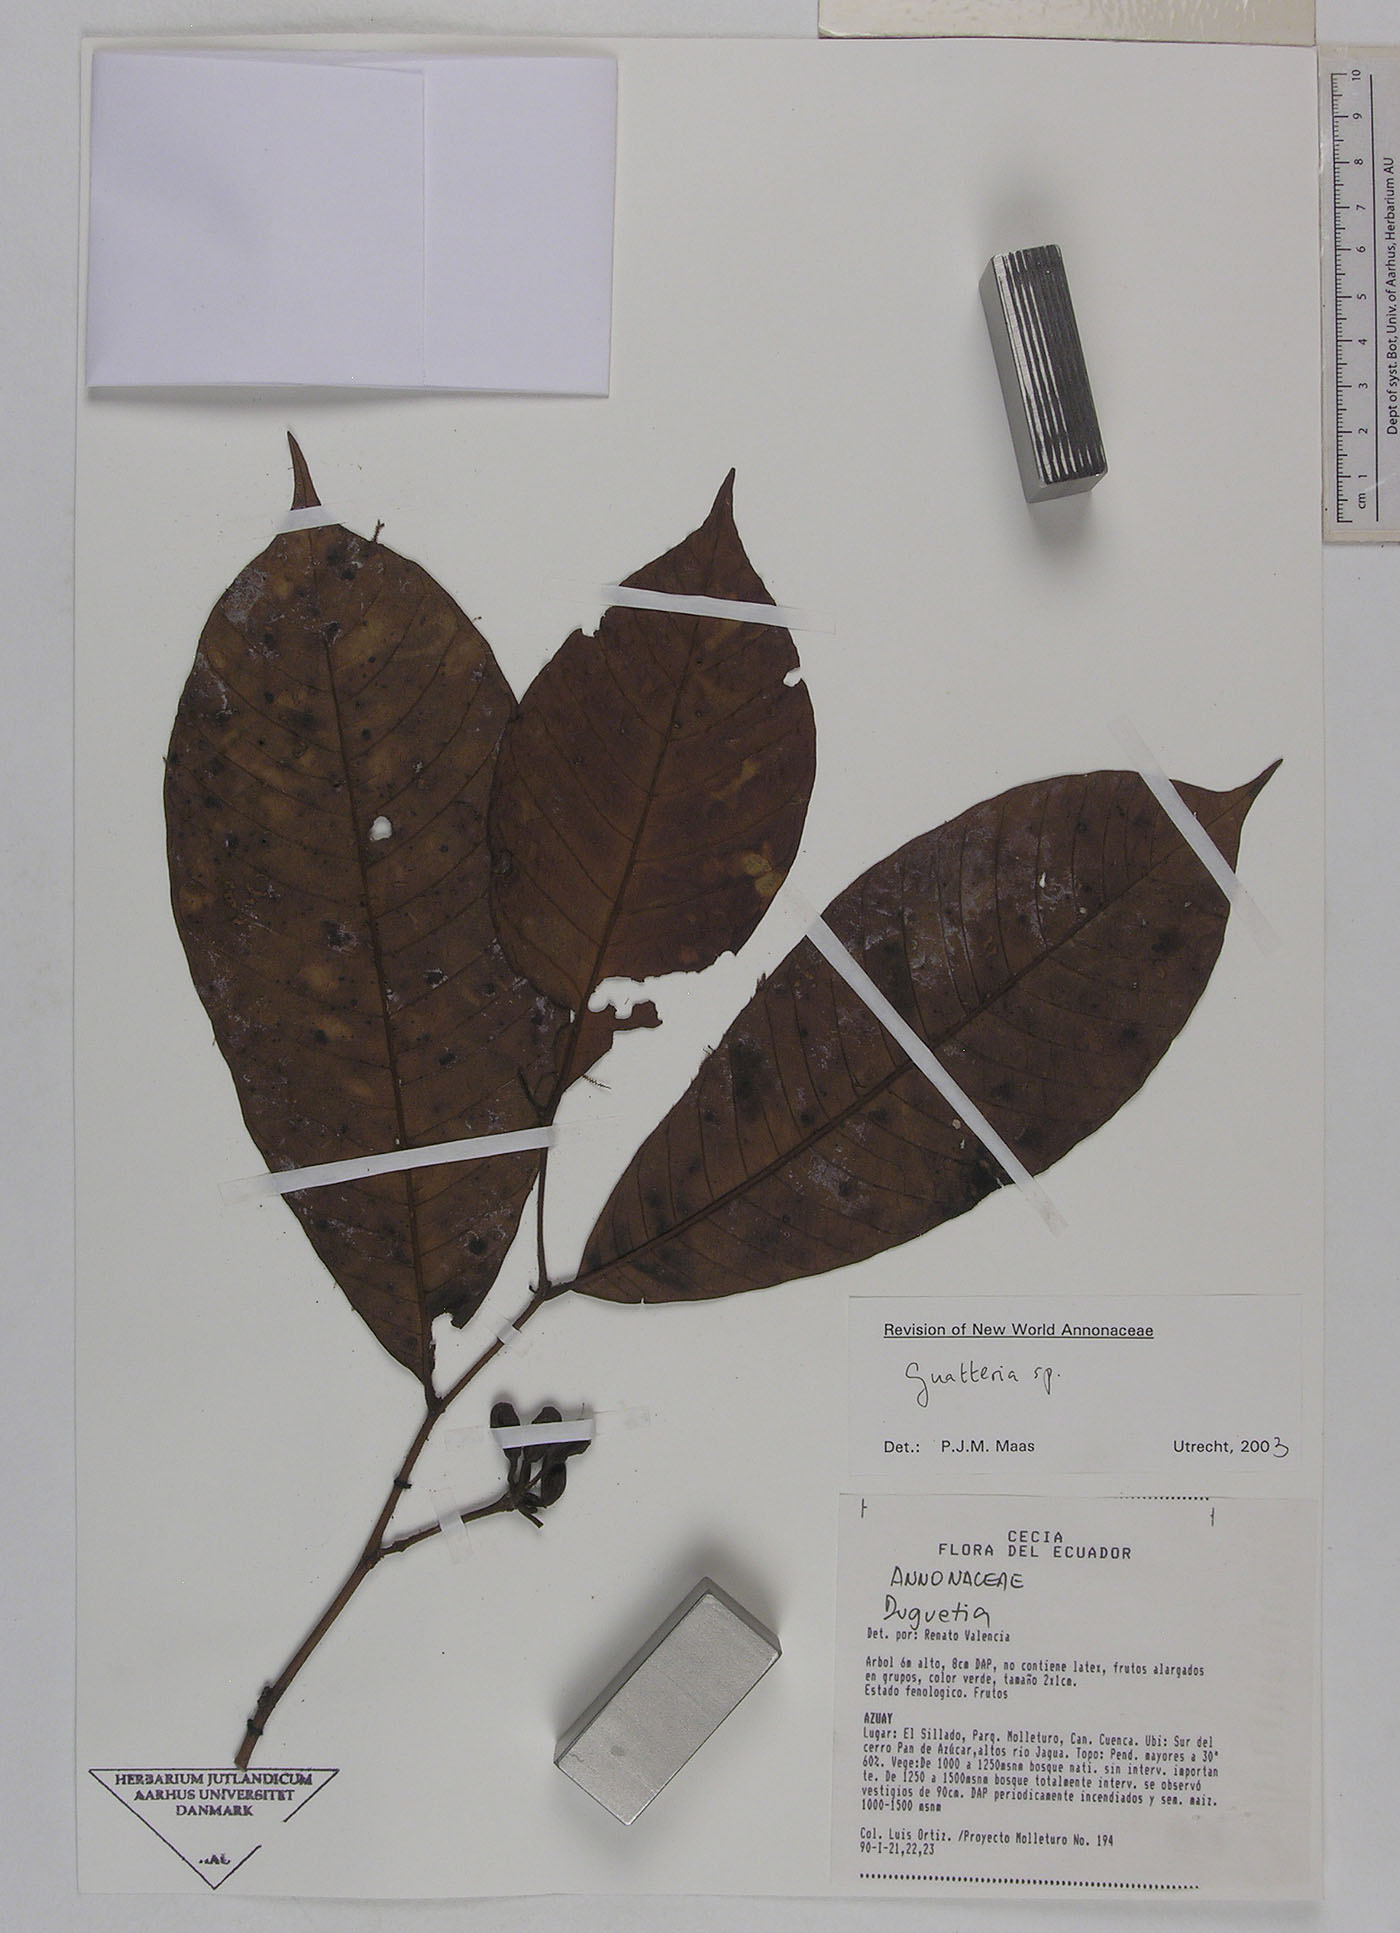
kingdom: Plantae
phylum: Tracheophyta
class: Magnoliopsida
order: Magnoliales
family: Annonaceae
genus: Guatteria
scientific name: Guatteria punctata
